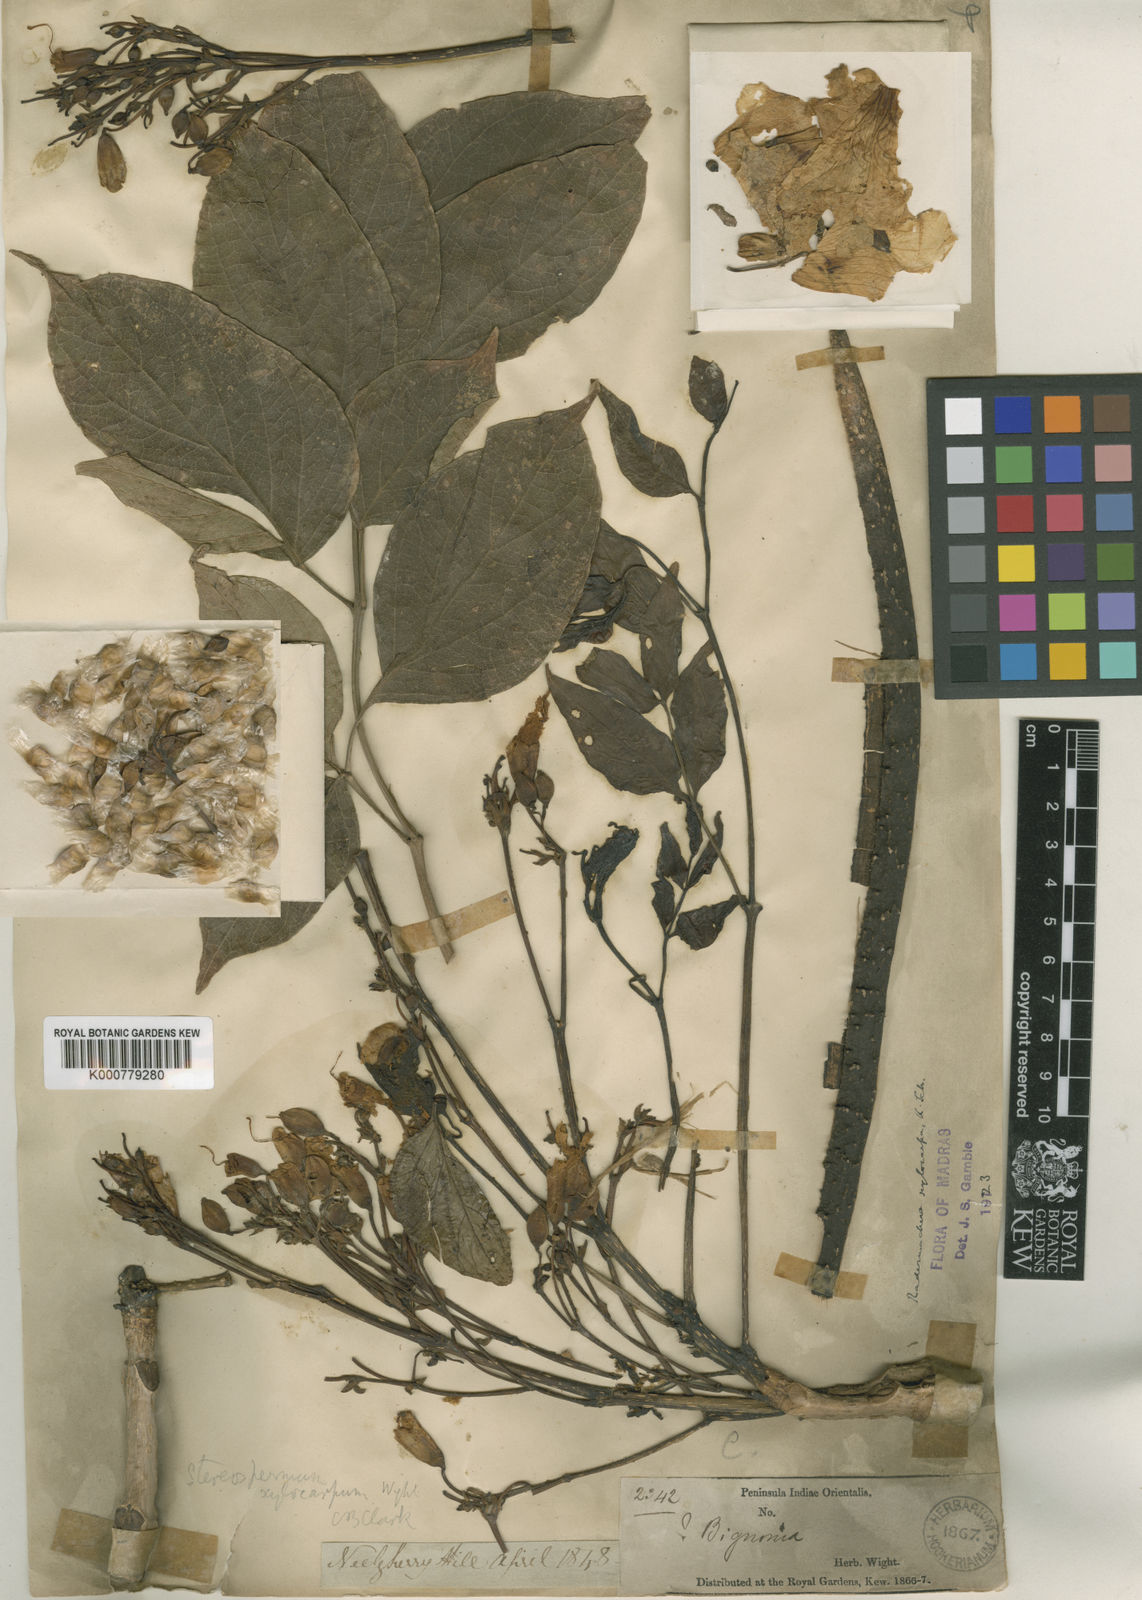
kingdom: Plantae
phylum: Tracheophyta
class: Magnoliopsida
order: Lamiales
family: Bignoniaceae
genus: Radermachera
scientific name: Radermachera xylocarpa
